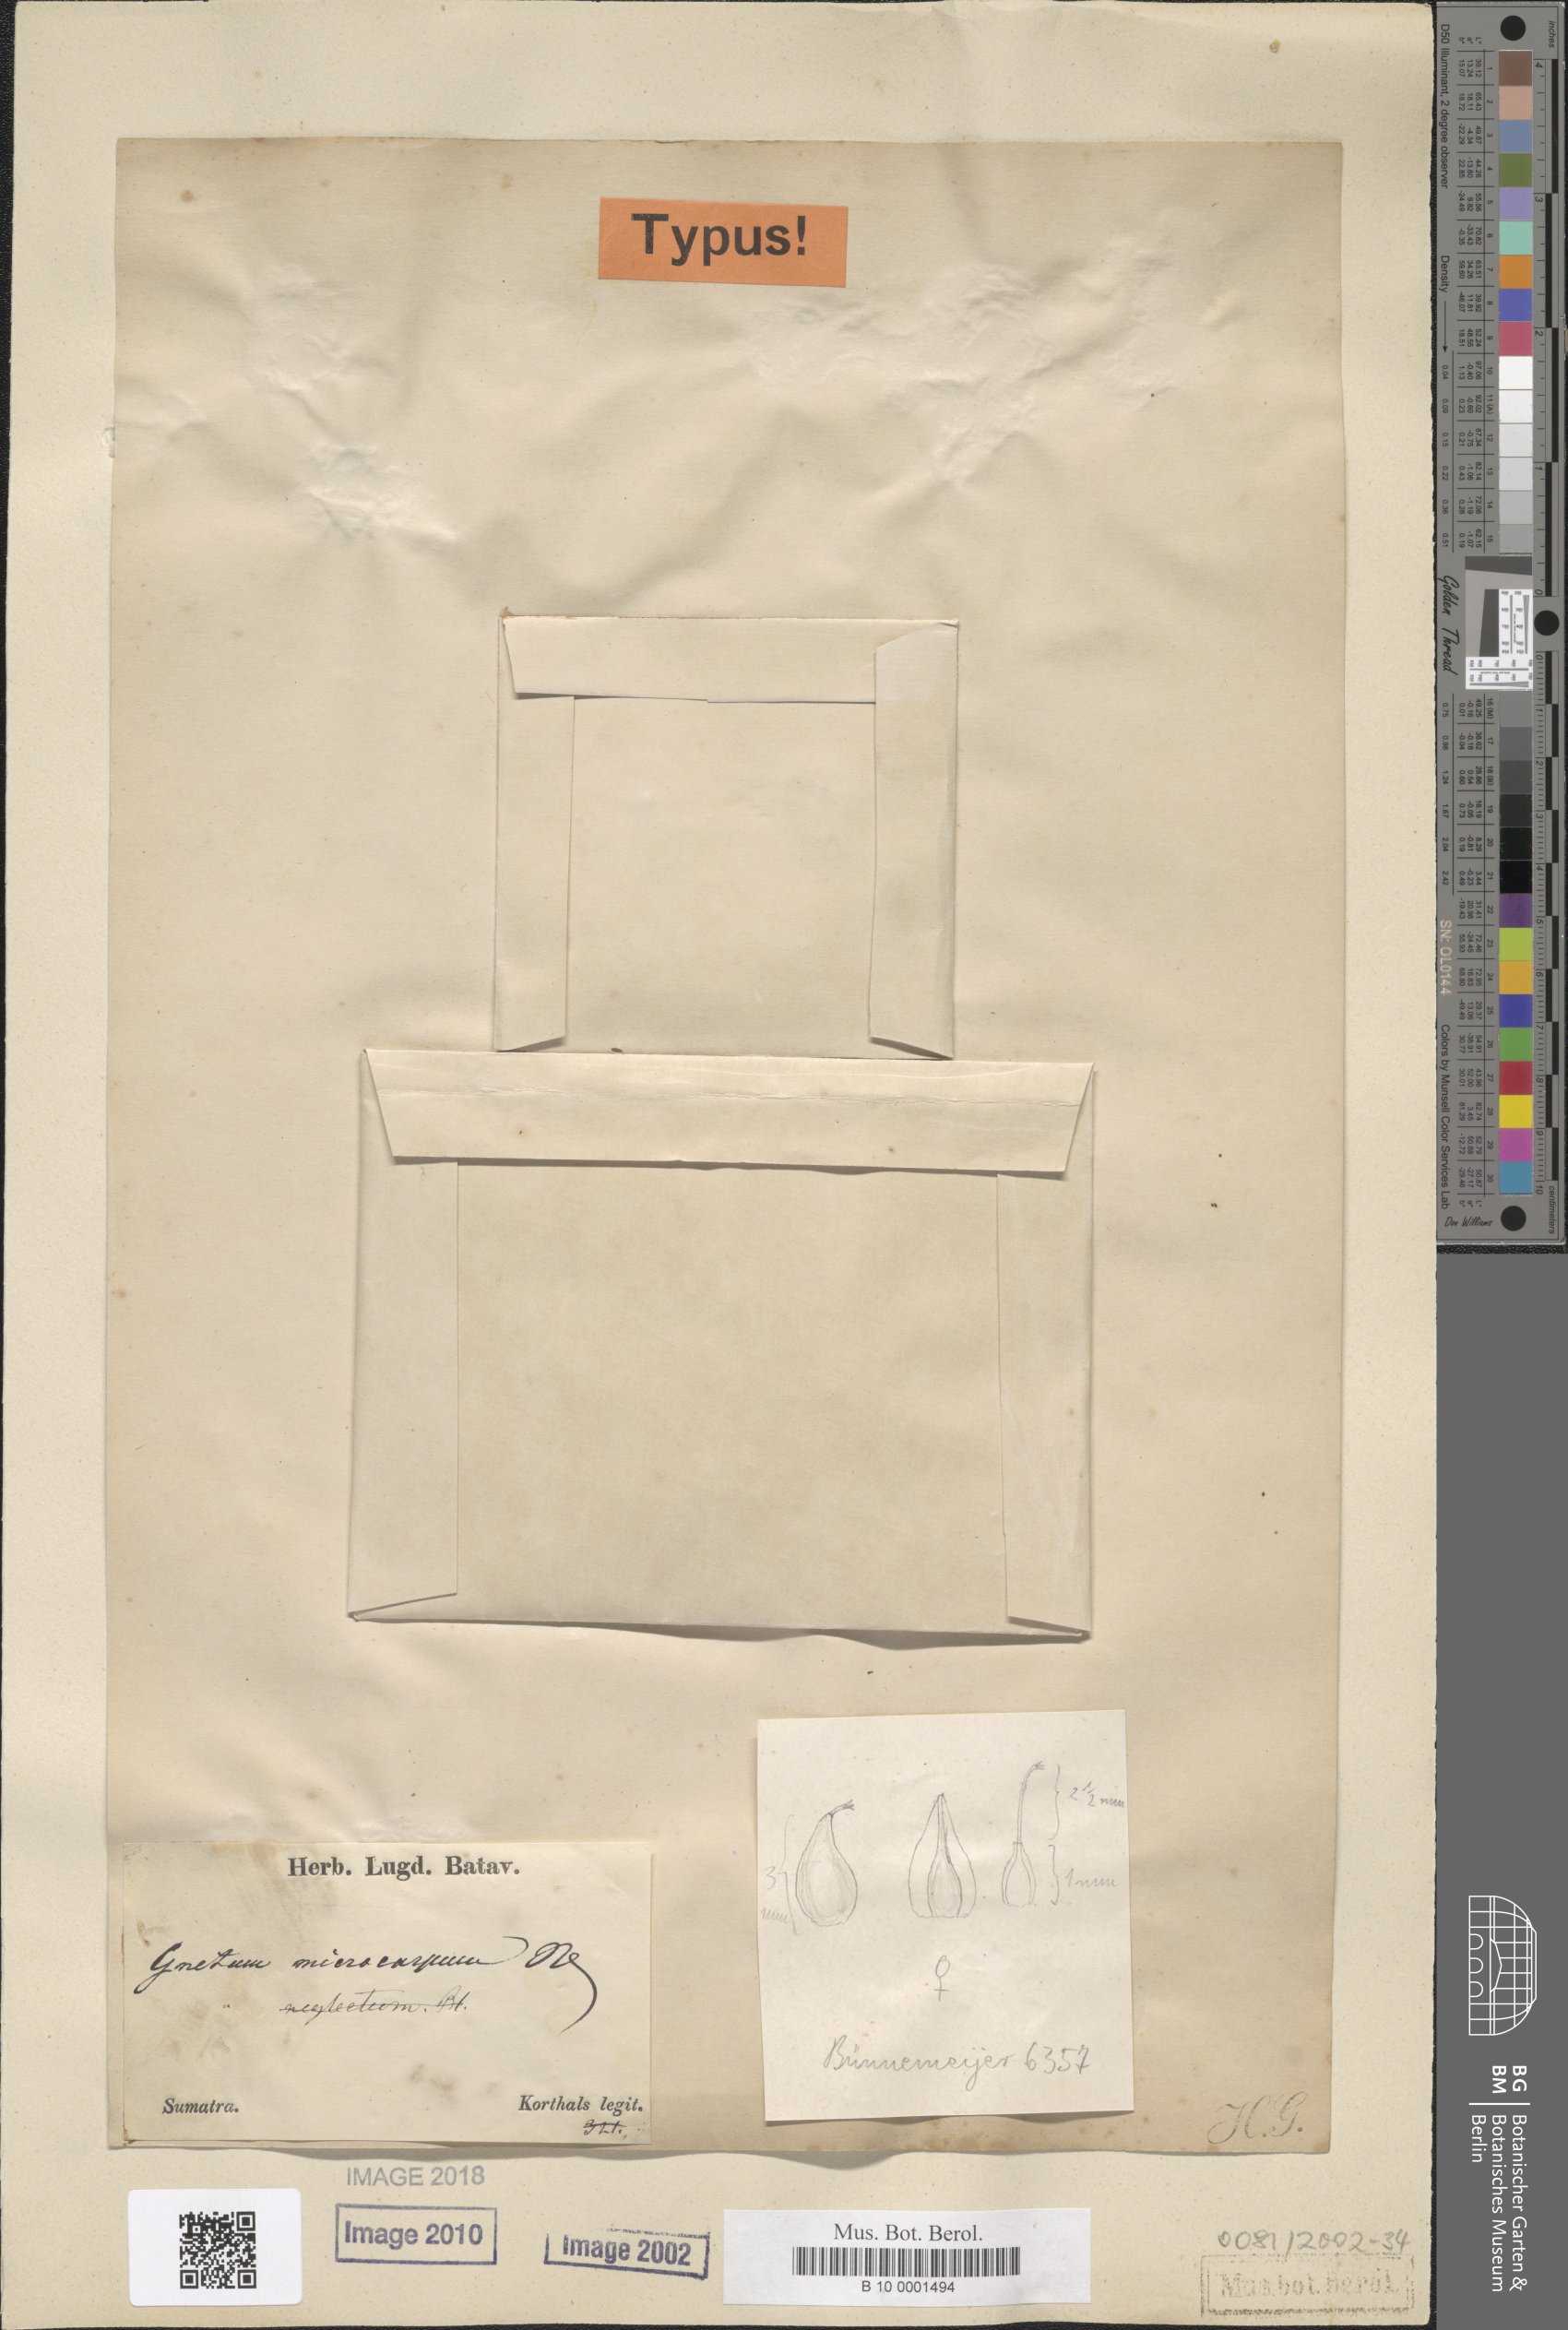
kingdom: Plantae
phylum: Tracheophyta
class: Gnetopsida
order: Gnetales
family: Gnetaceae
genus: Gnetum
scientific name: Gnetum microcarpum
